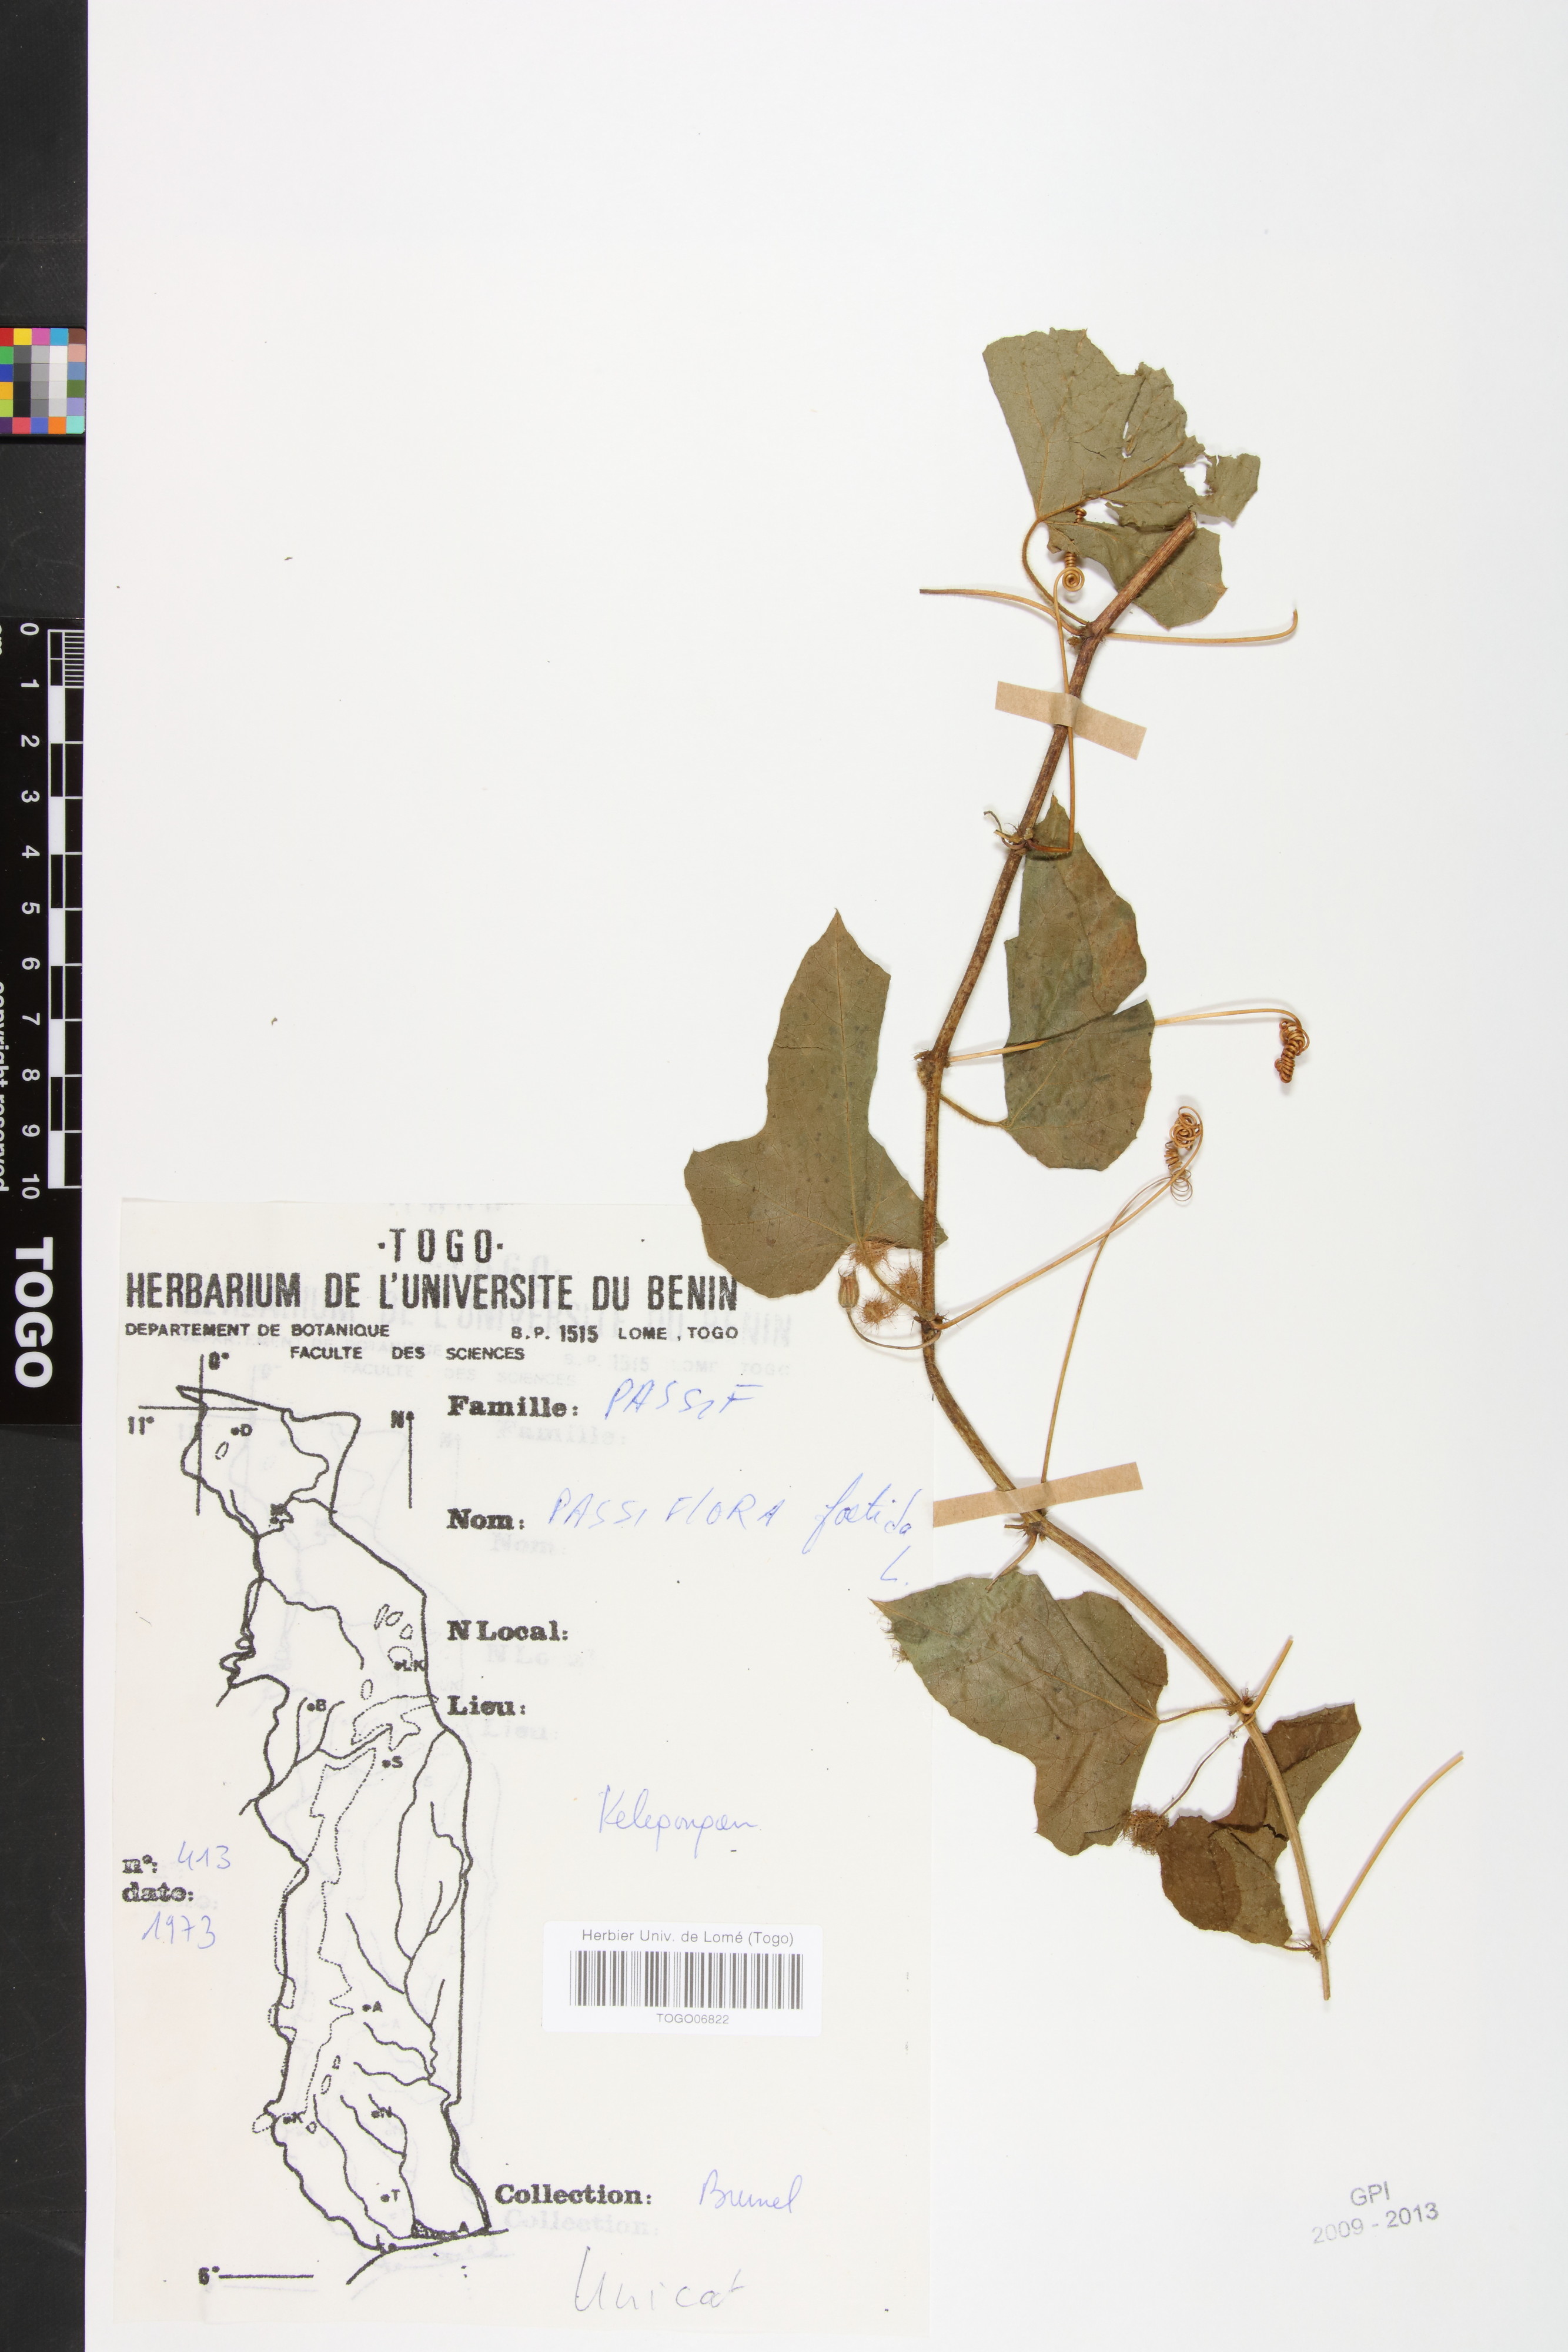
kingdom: Plantae
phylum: Tracheophyta
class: Magnoliopsida
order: Malpighiales
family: Passifloraceae
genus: Passiflora
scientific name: Passiflora foetida
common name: Fetid passionflower
